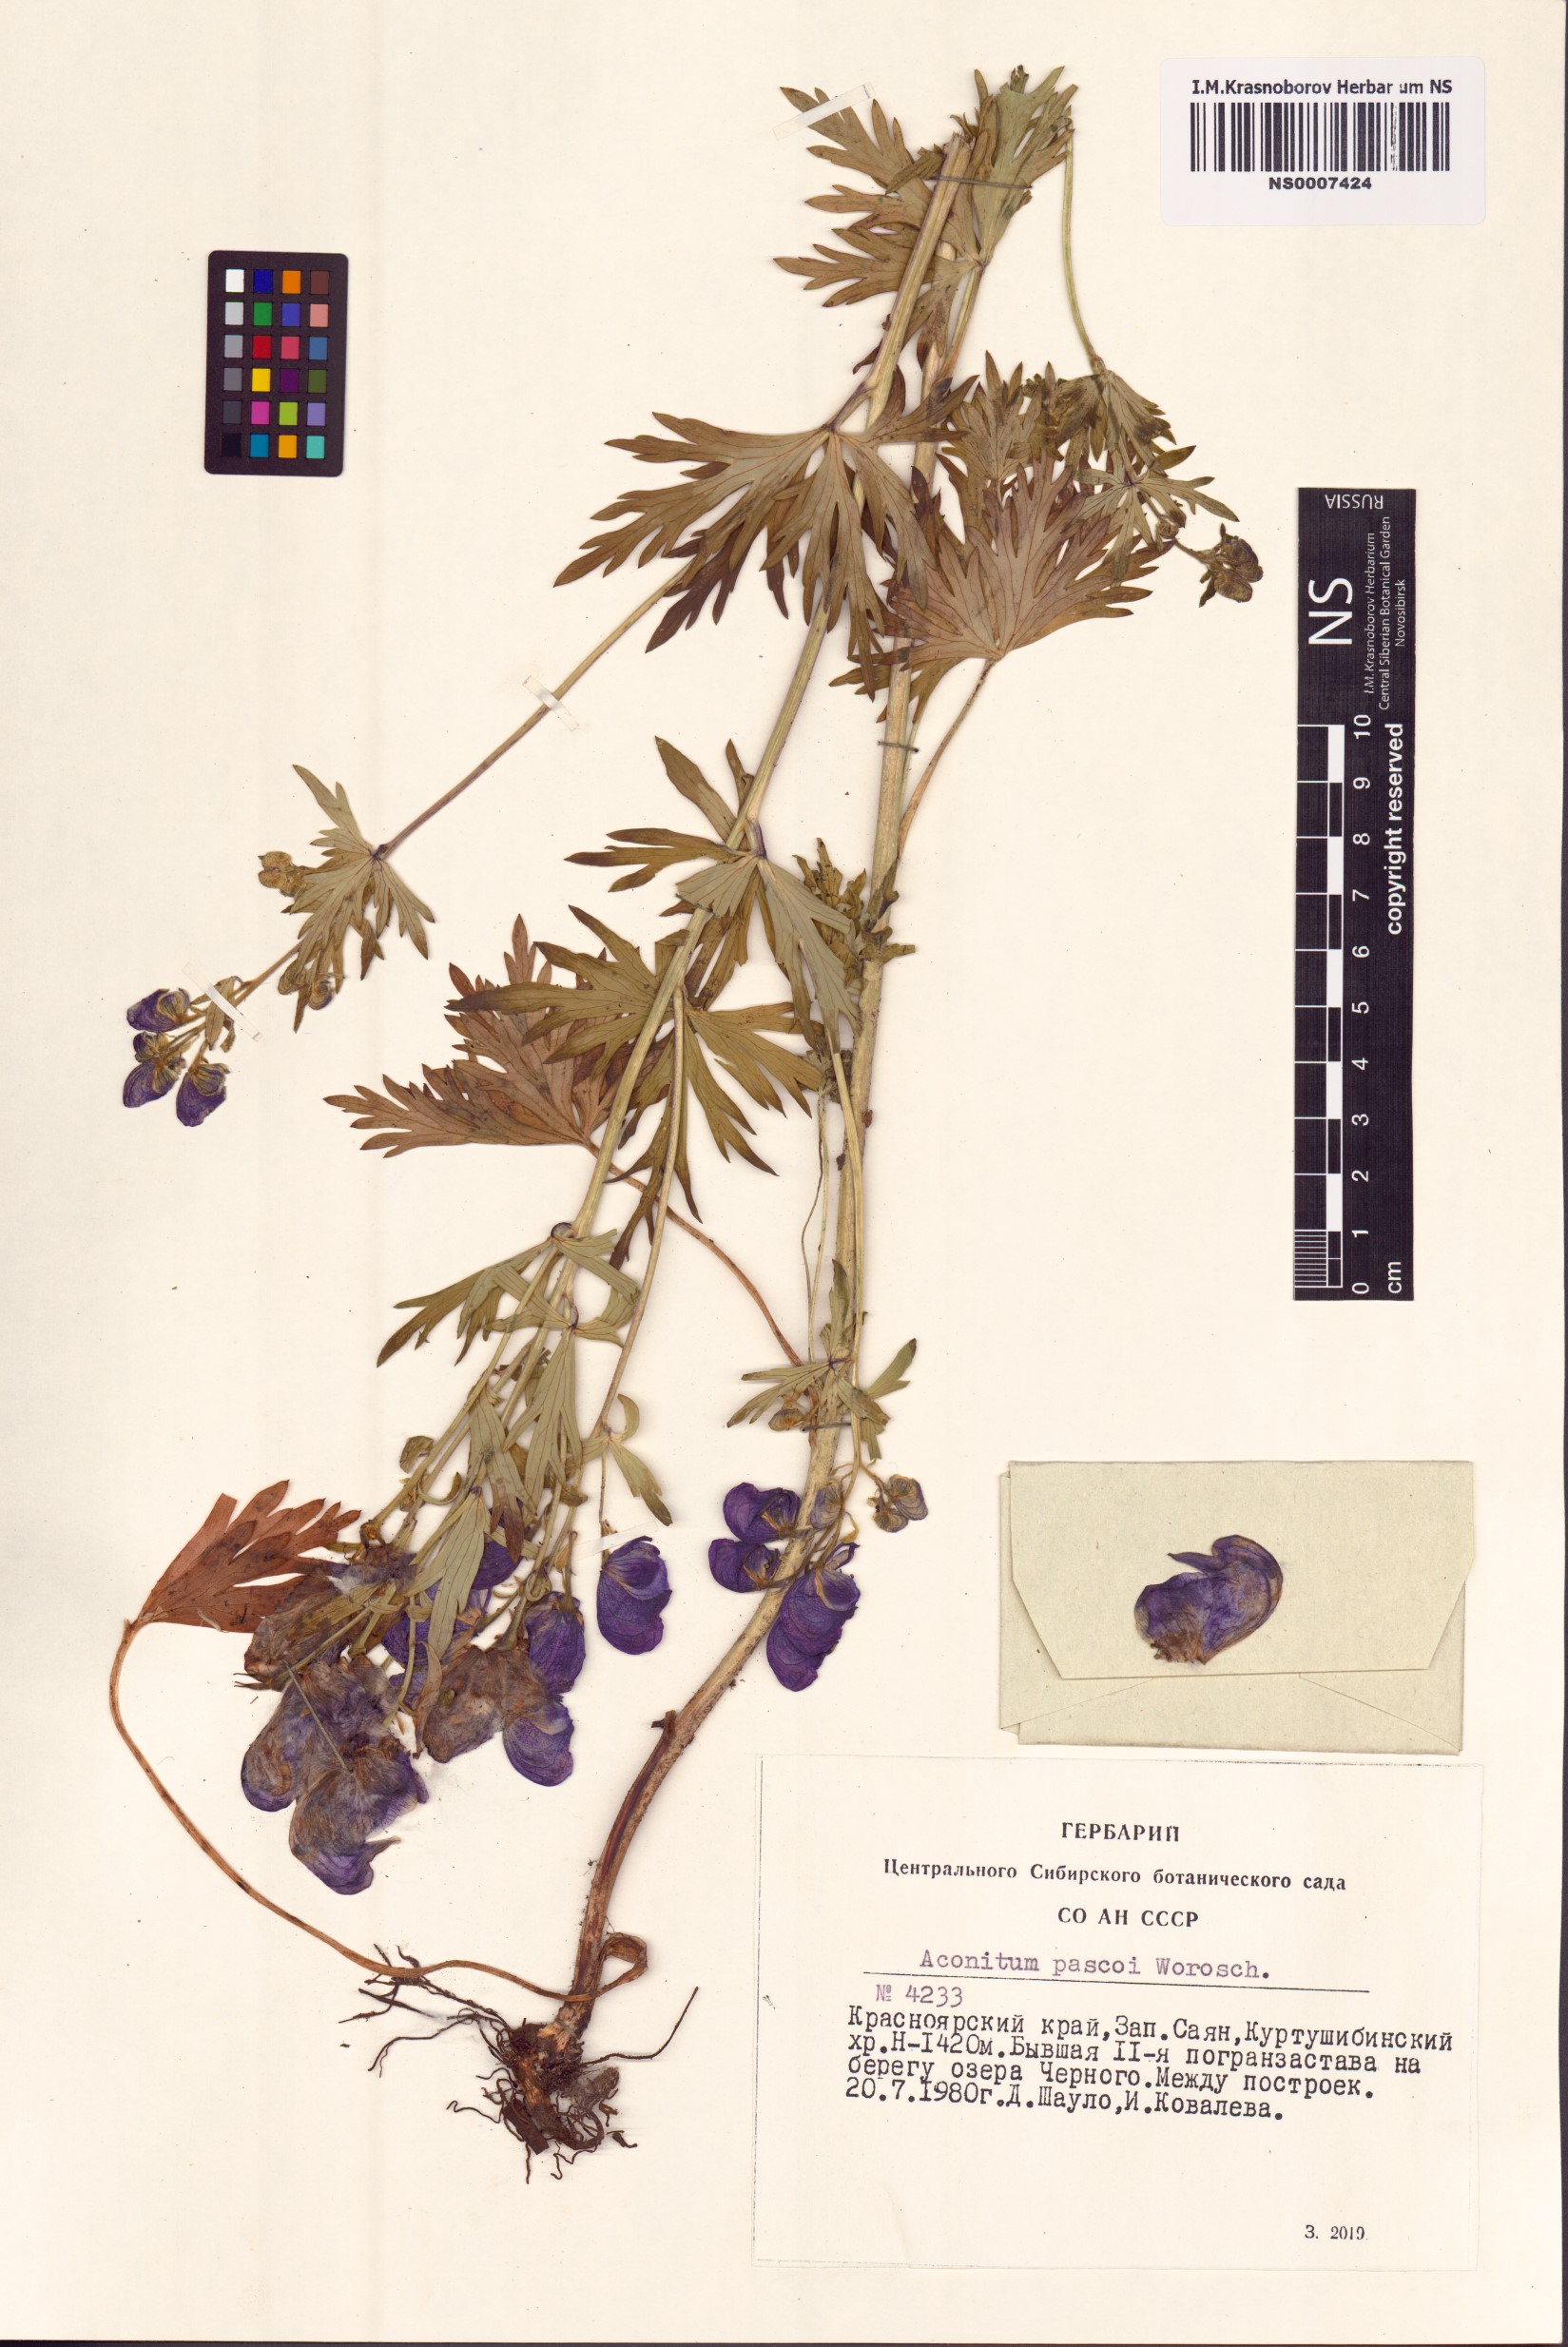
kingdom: Plantae
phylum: Tracheophyta
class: Magnoliopsida
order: Ranunculales
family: Ranunculaceae
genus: Aconitum
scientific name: Aconitum pascoi
